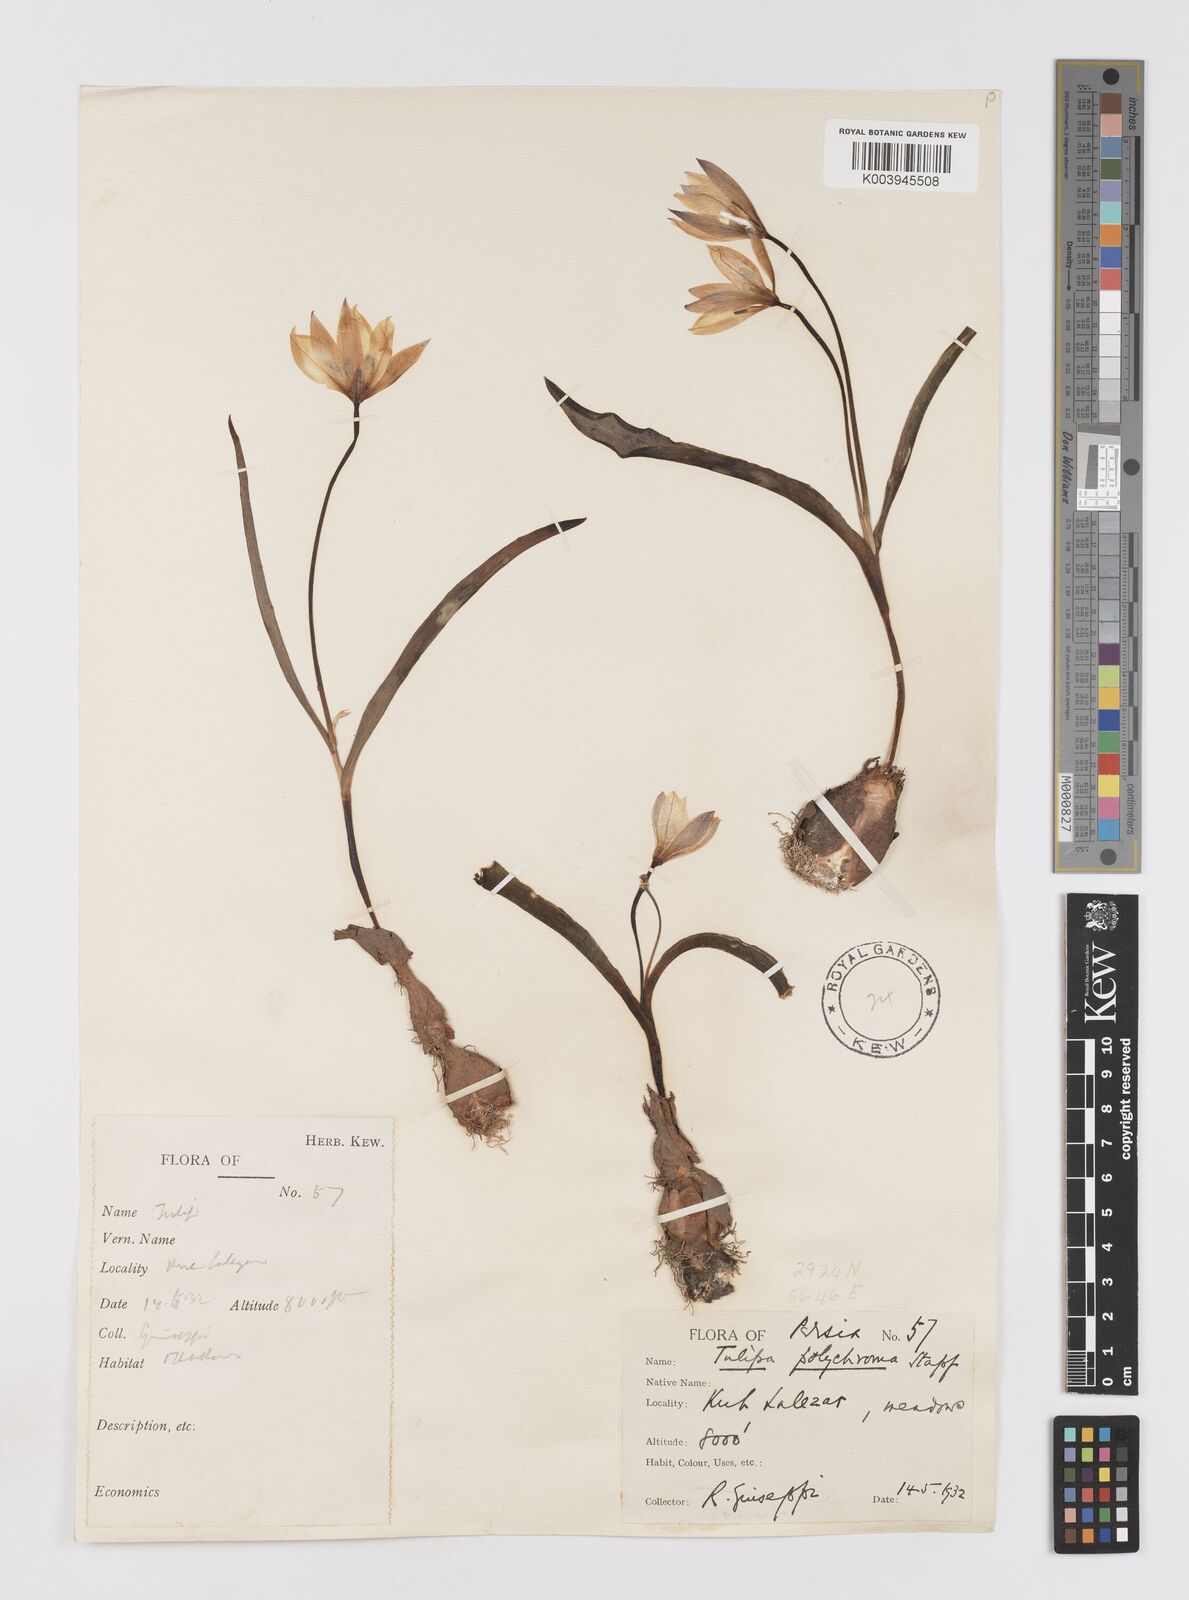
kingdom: Plantae
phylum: Tracheophyta
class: Liliopsida
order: Liliales
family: Liliaceae
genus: Tulipa
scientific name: Tulipa biflora
